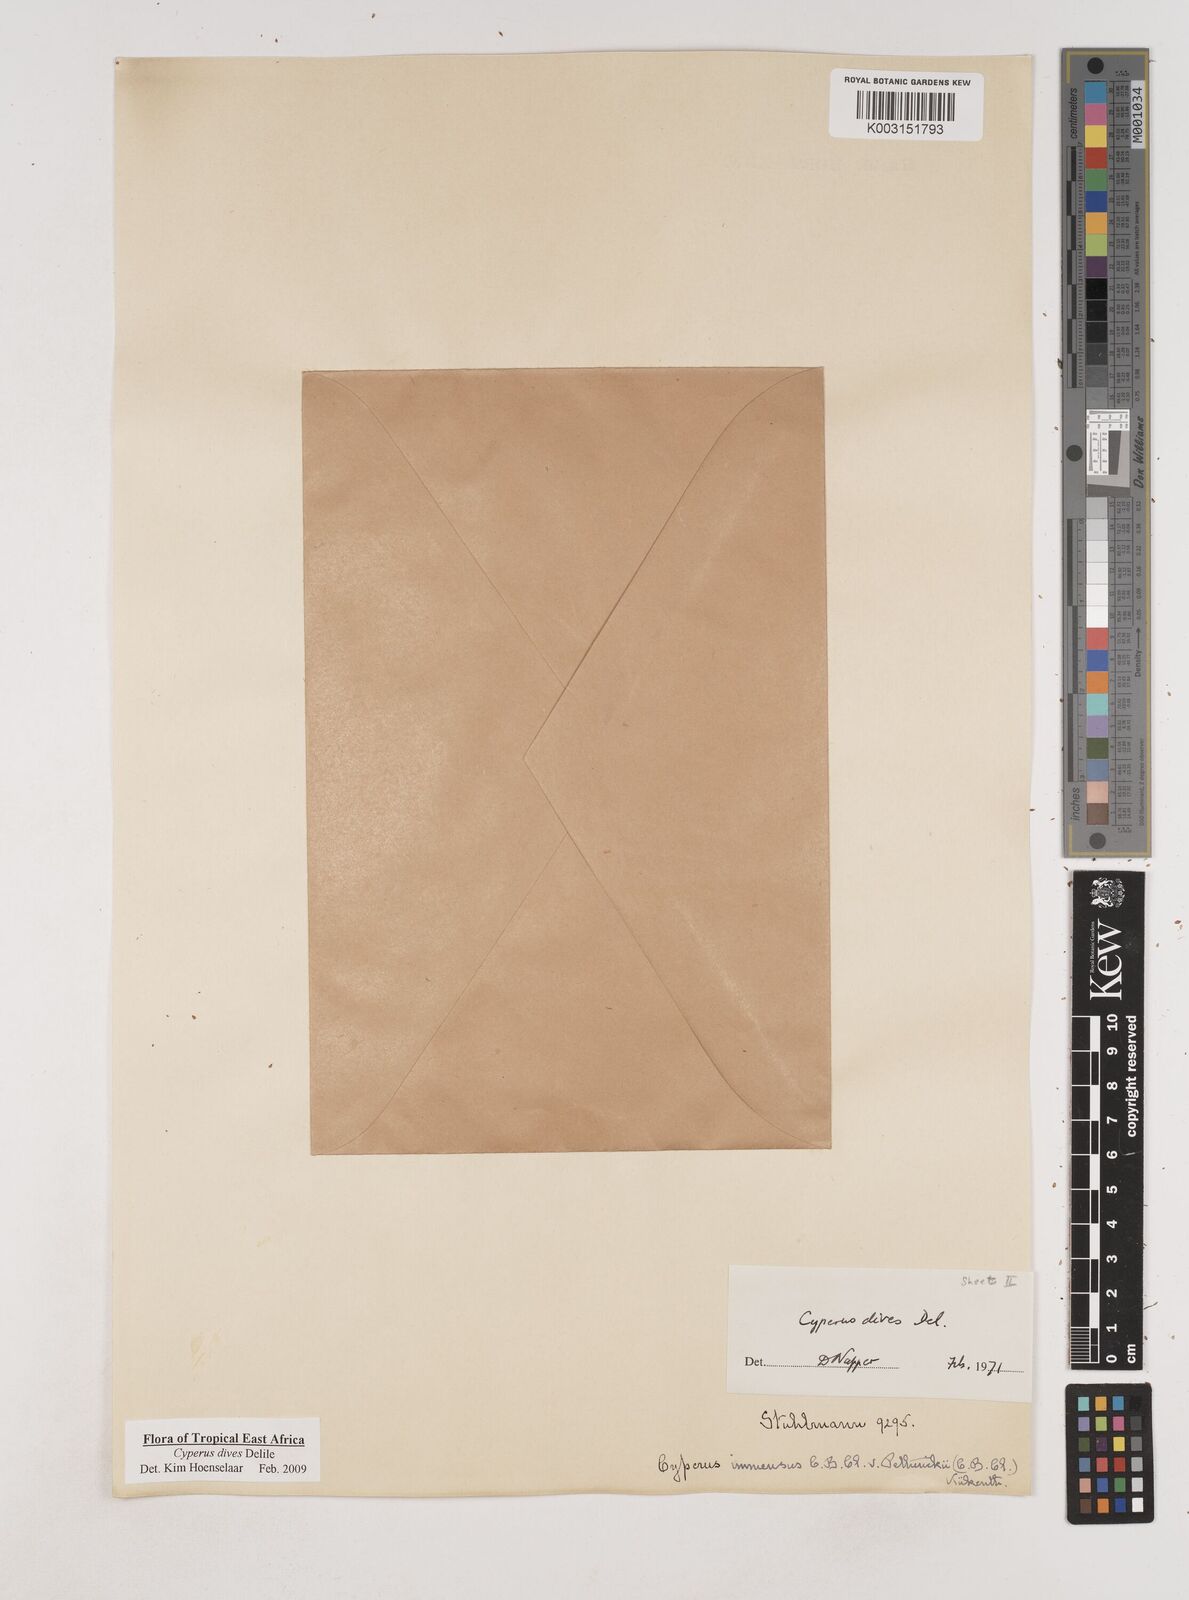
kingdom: Plantae
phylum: Tracheophyta
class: Liliopsida
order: Poales
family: Cyperaceae
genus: Cyperus
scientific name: Cyperus dives
